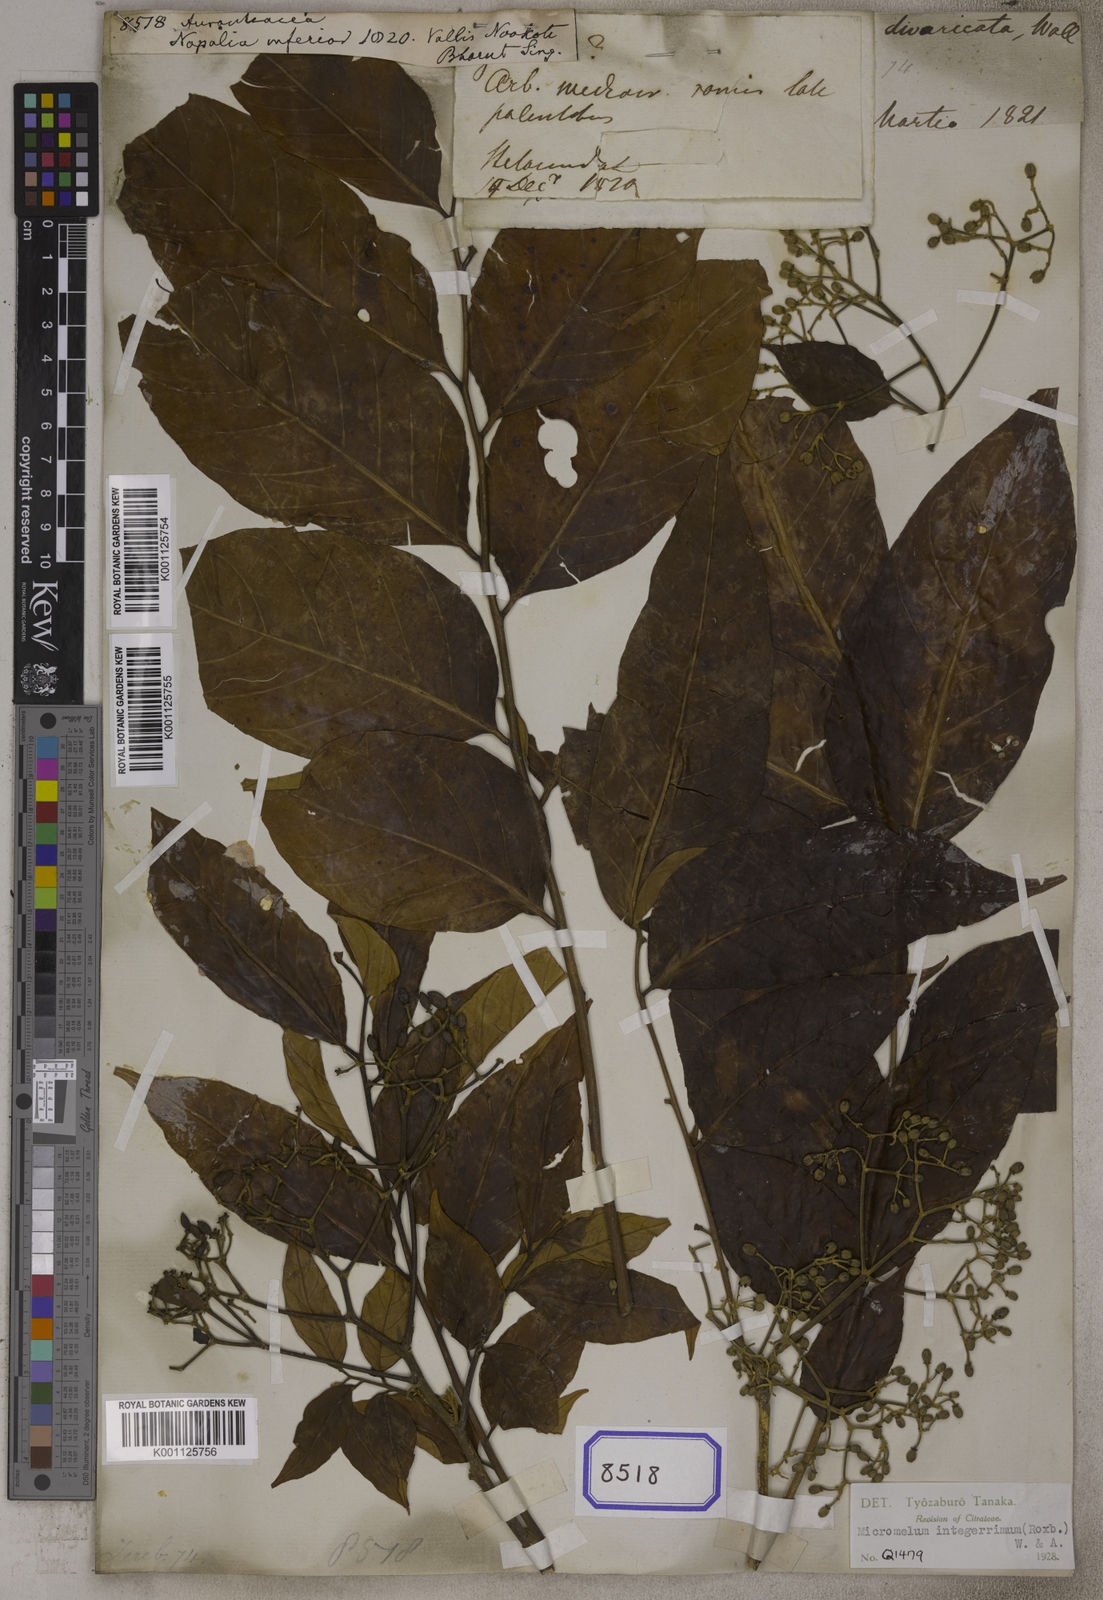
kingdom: Plantae
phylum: Tracheophyta
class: Magnoliopsida
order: Sapindales
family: Rutaceae
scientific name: Rutaceae
